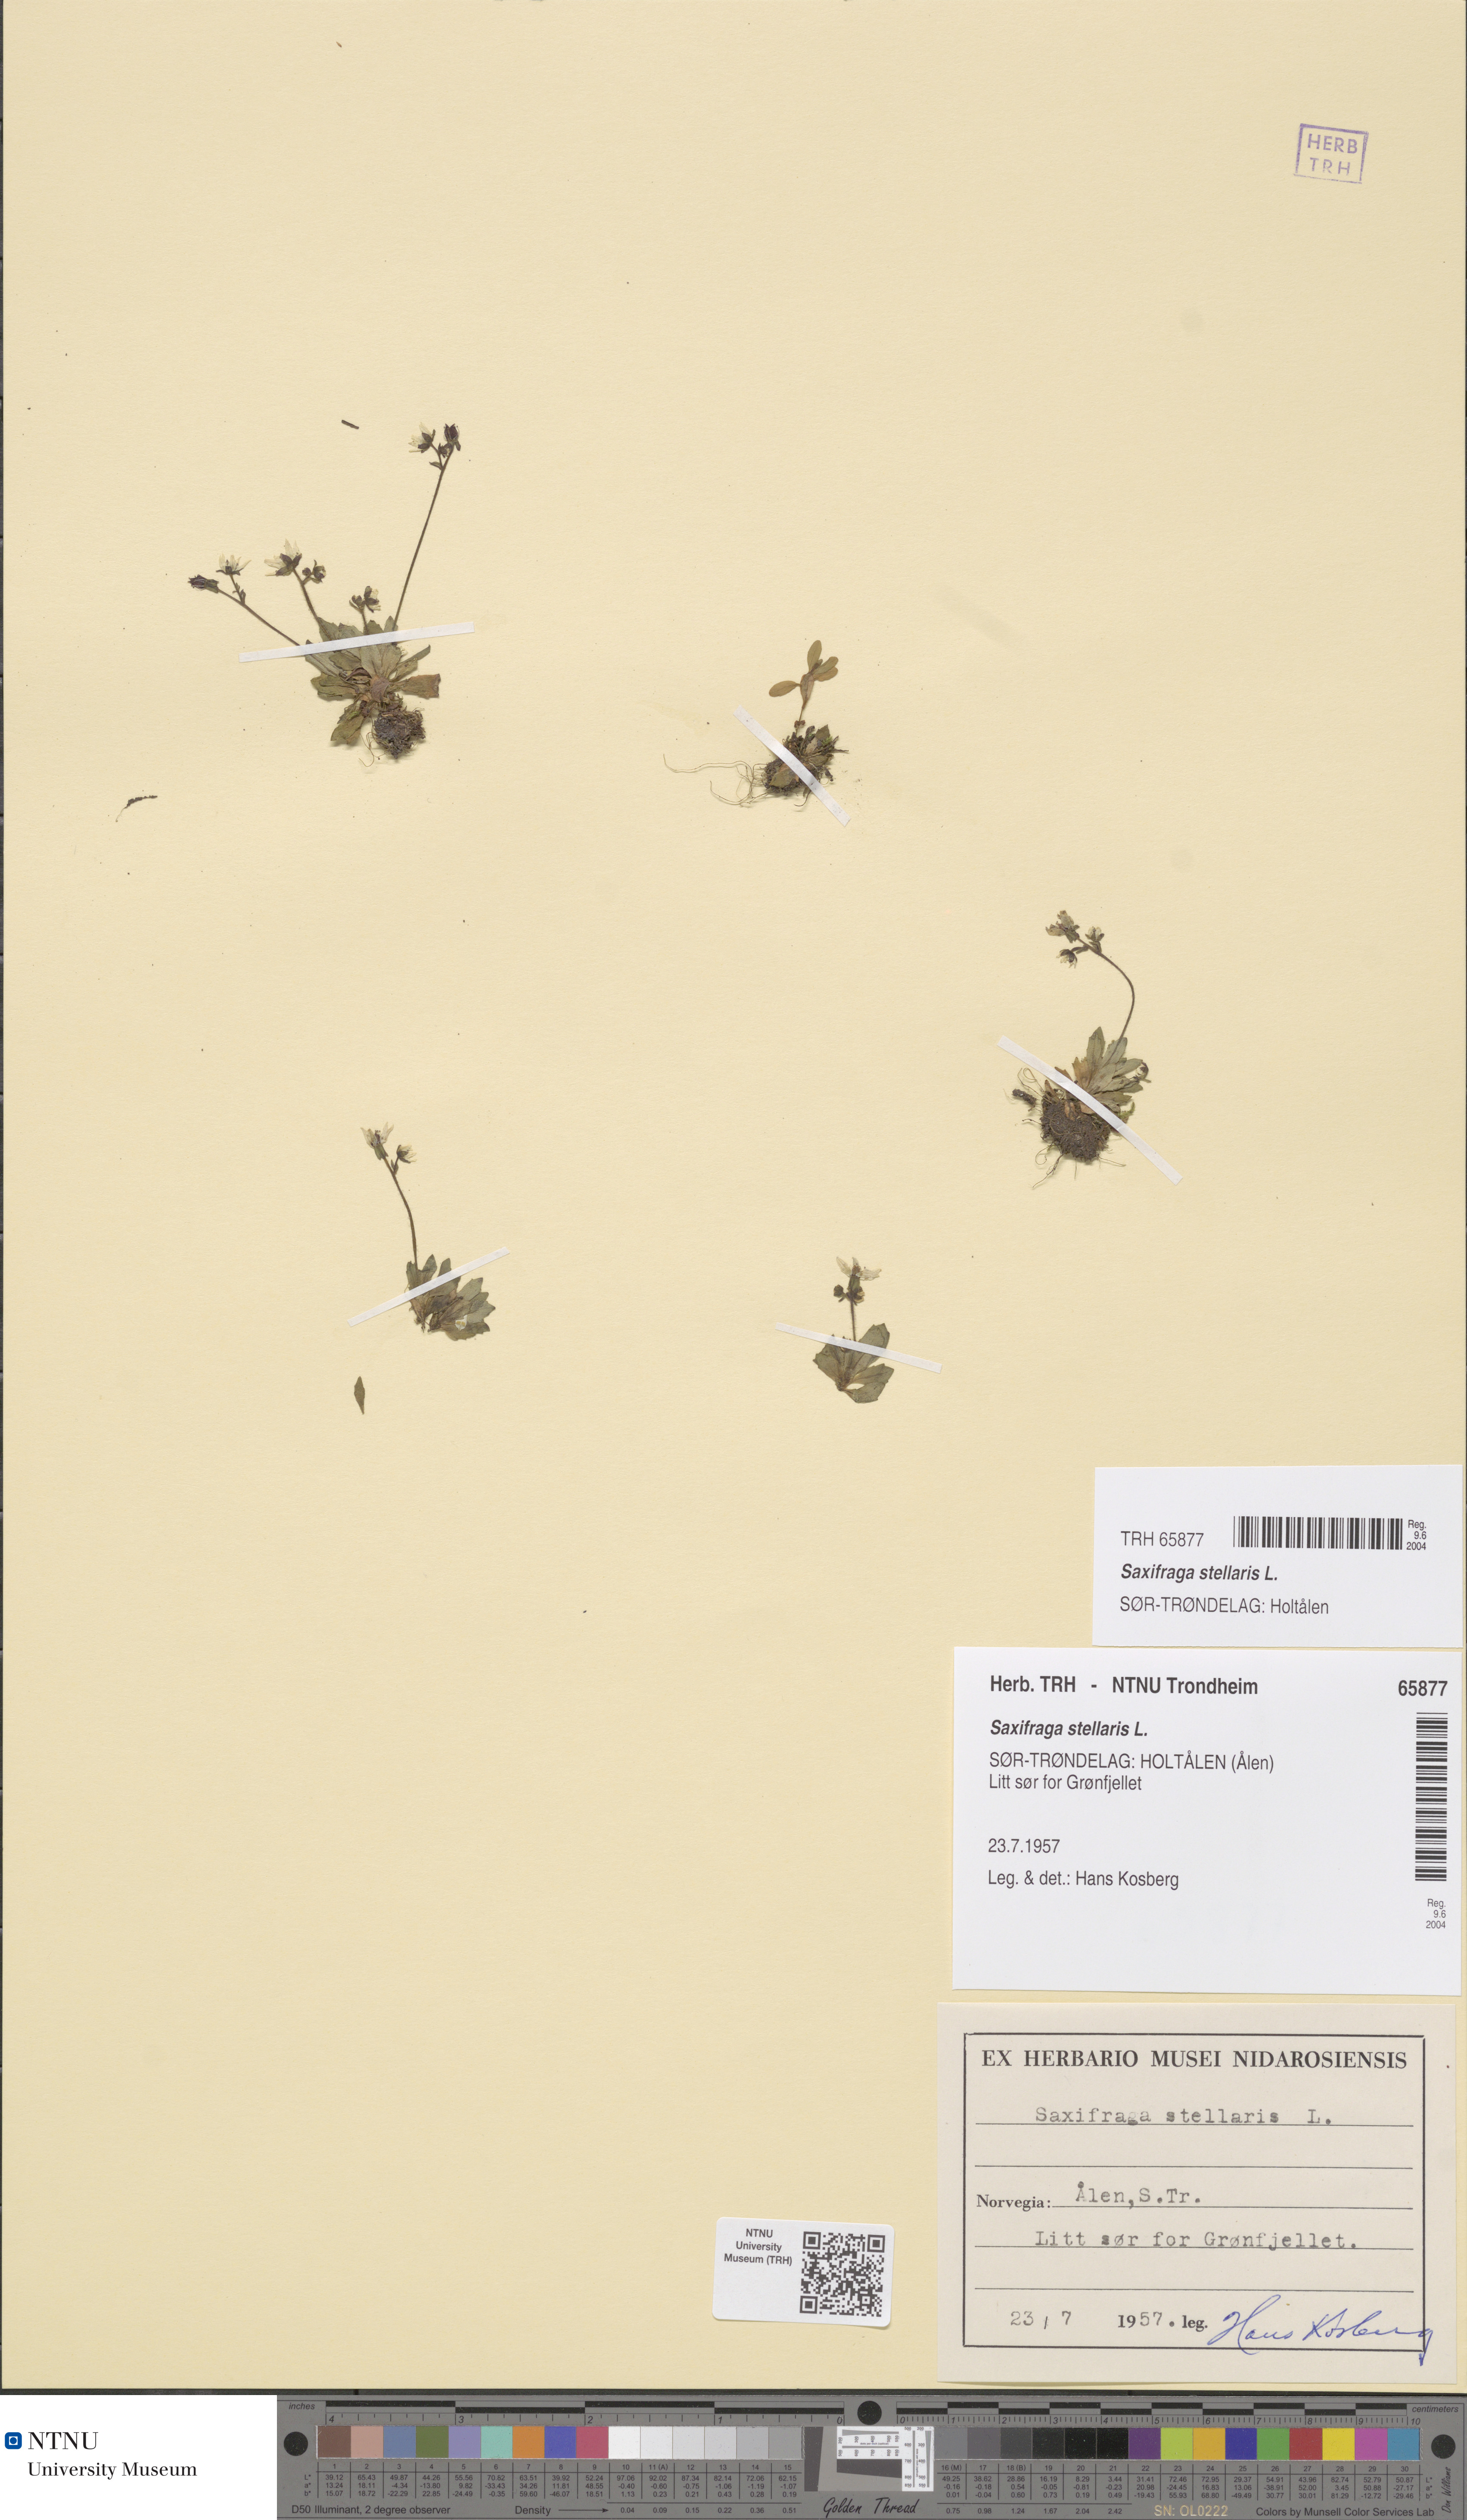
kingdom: Plantae
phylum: Tracheophyta
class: Magnoliopsida
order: Saxifragales
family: Saxifragaceae
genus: Micranthes
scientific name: Micranthes stellaris
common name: Starry saxifrage
